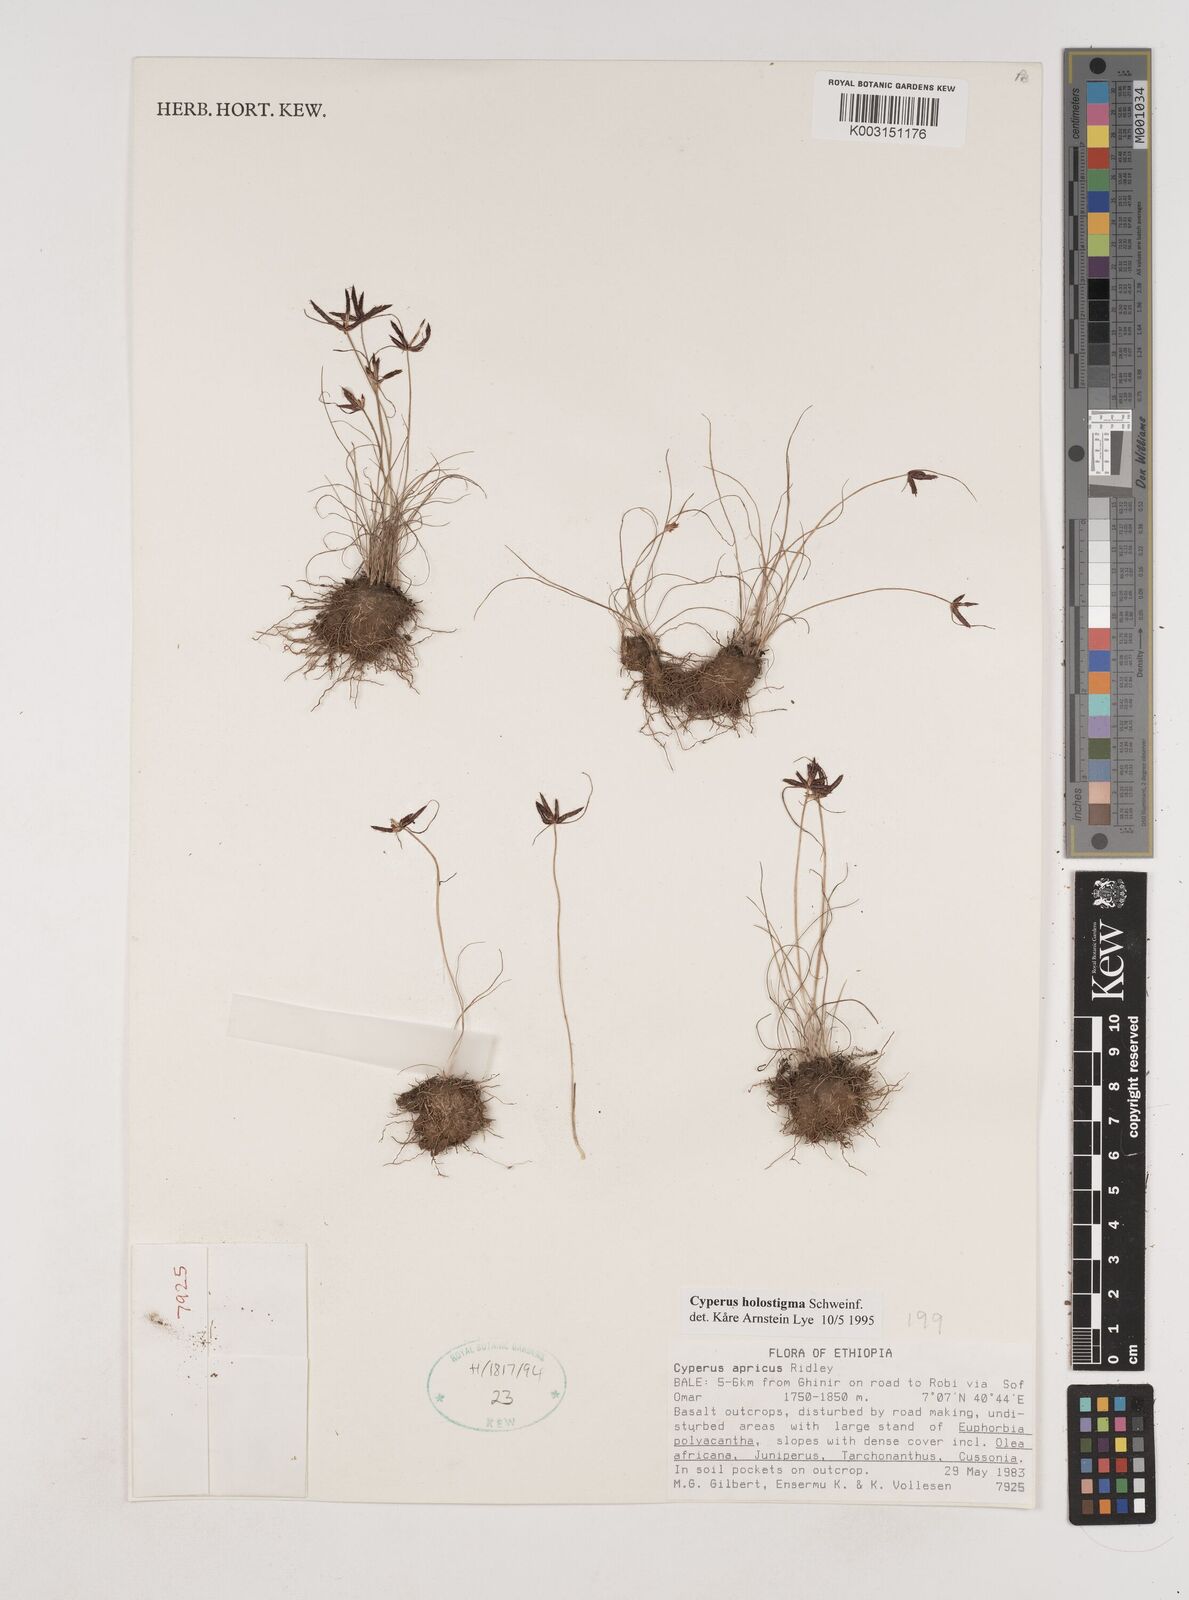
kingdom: Plantae
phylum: Tracheophyta
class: Liliopsida
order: Poales
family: Cyperaceae
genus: Cyperus
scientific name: Cyperus holostigma
